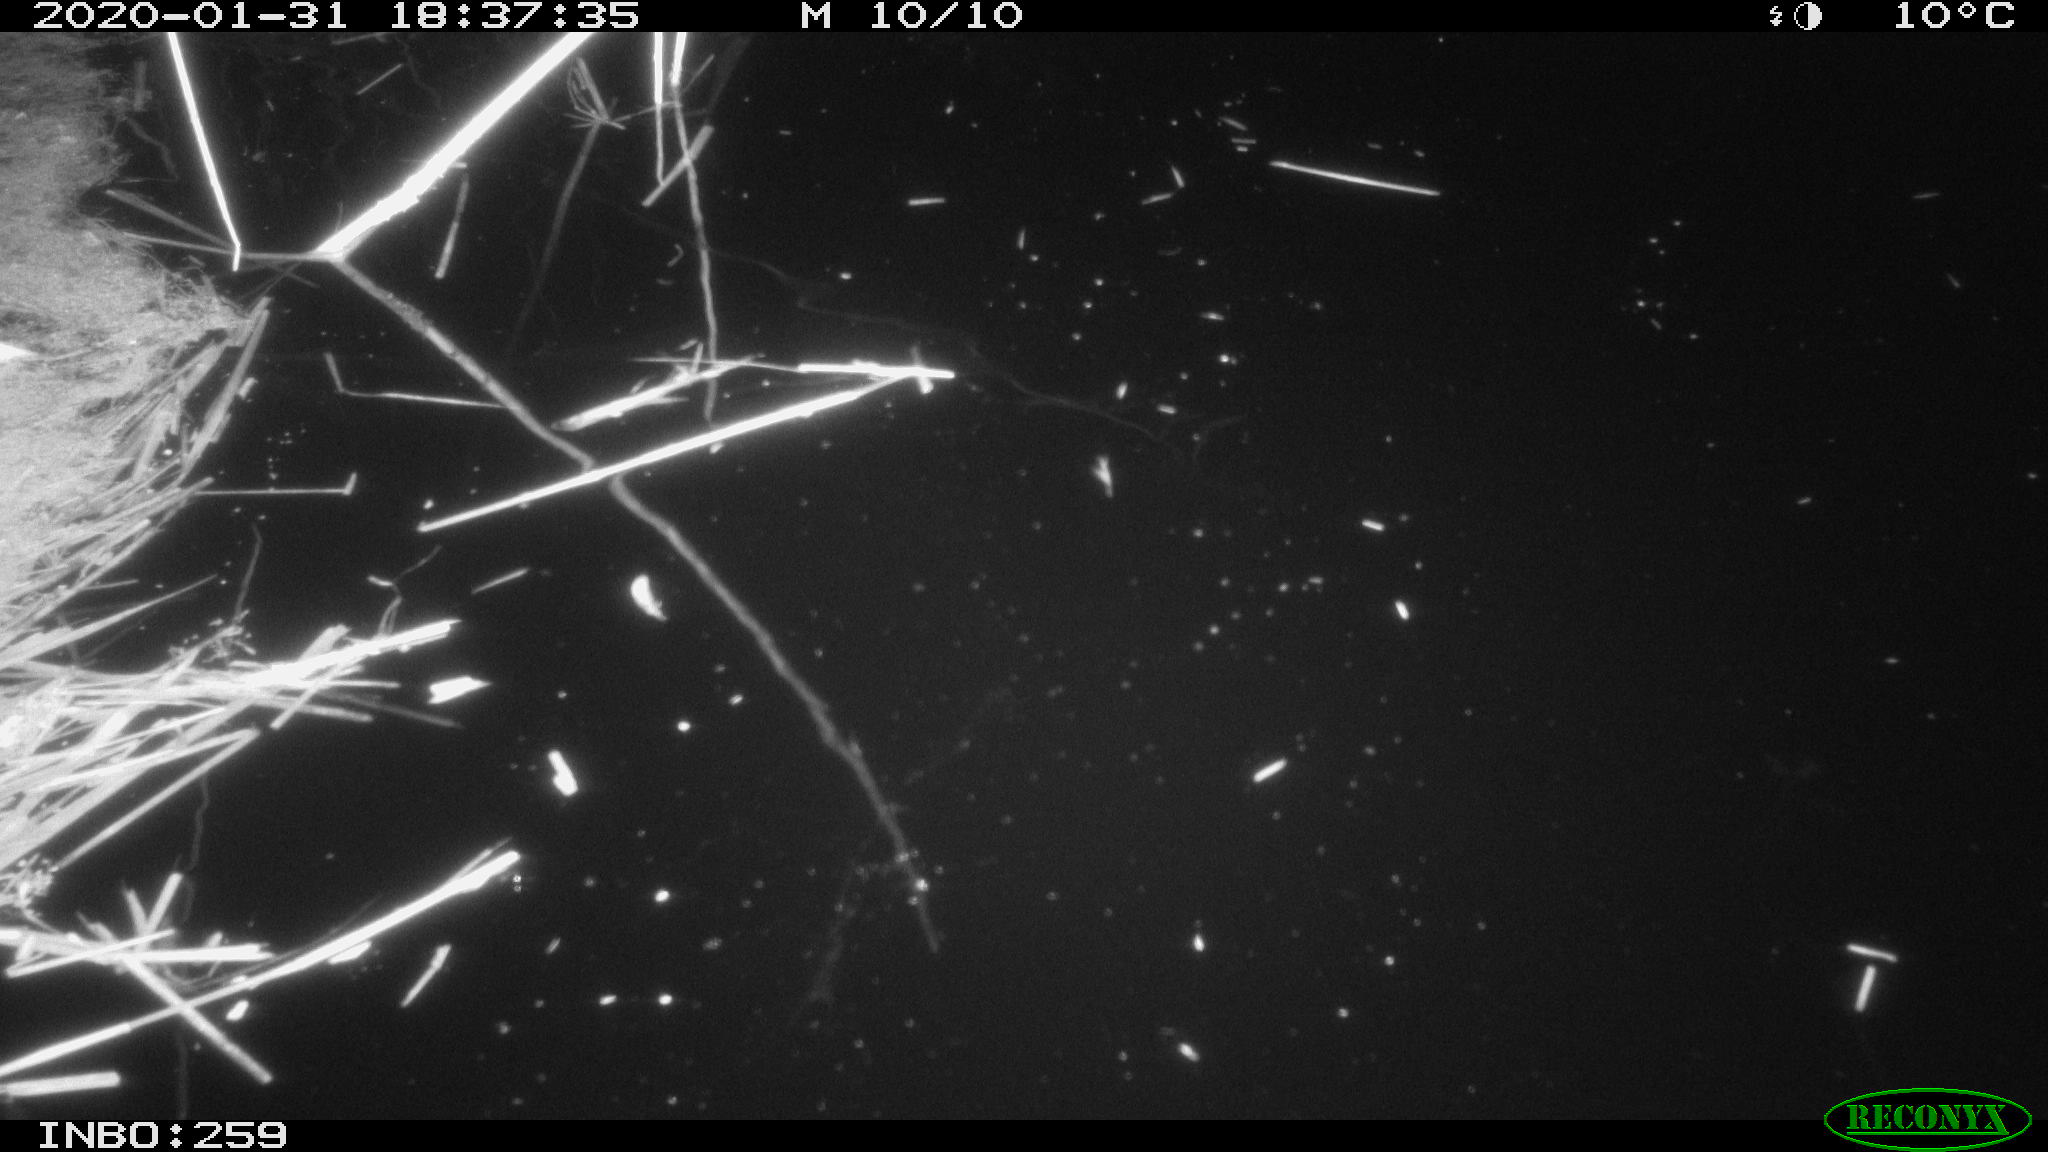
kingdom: Animalia
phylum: Chordata
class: Mammalia
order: Rodentia
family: Cricetidae
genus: Ondatra
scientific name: Ondatra zibethicus
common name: Muskrat
